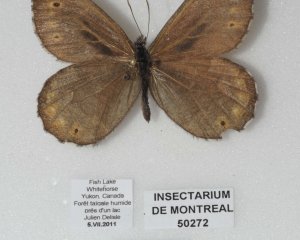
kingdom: Animalia
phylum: Arthropoda
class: Insecta
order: Lepidoptera
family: Nymphalidae
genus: Oeneis
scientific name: Oeneis jutta
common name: Jutta Arctic
